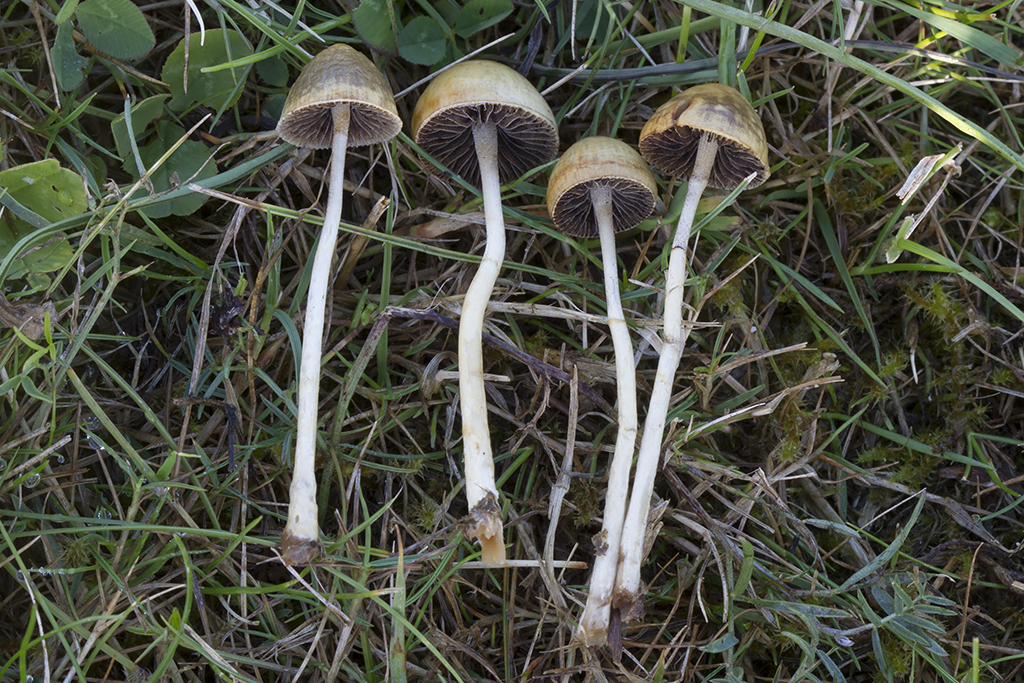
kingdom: Fungi
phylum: Basidiomycota
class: Agaricomycetes
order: Agaricales
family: Strophariaceae
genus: Protostropharia
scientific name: Protostropharia semiglobata
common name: halvkugleformet bredblad
